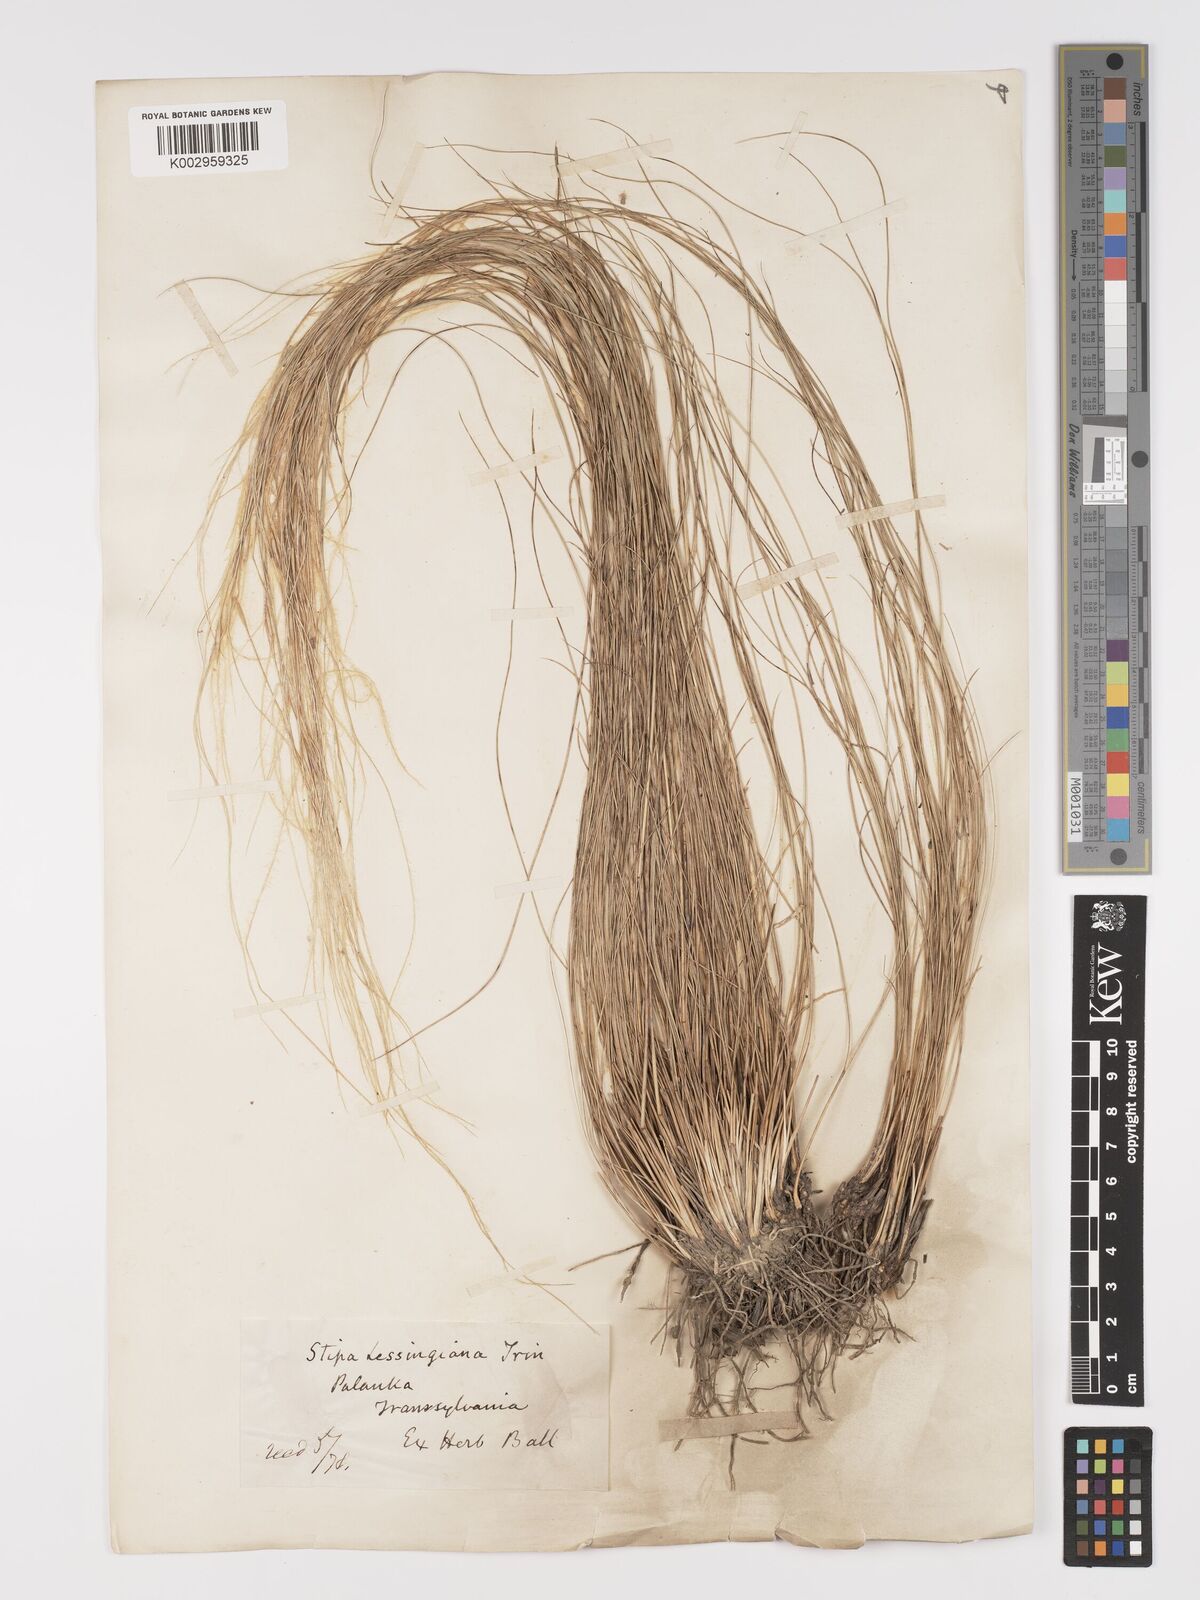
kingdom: Plantae
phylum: Tracheophyta
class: Liliopsida
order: Poales
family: Poaceae
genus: Stipa
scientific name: Stipa lessingiana
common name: Needle grass
